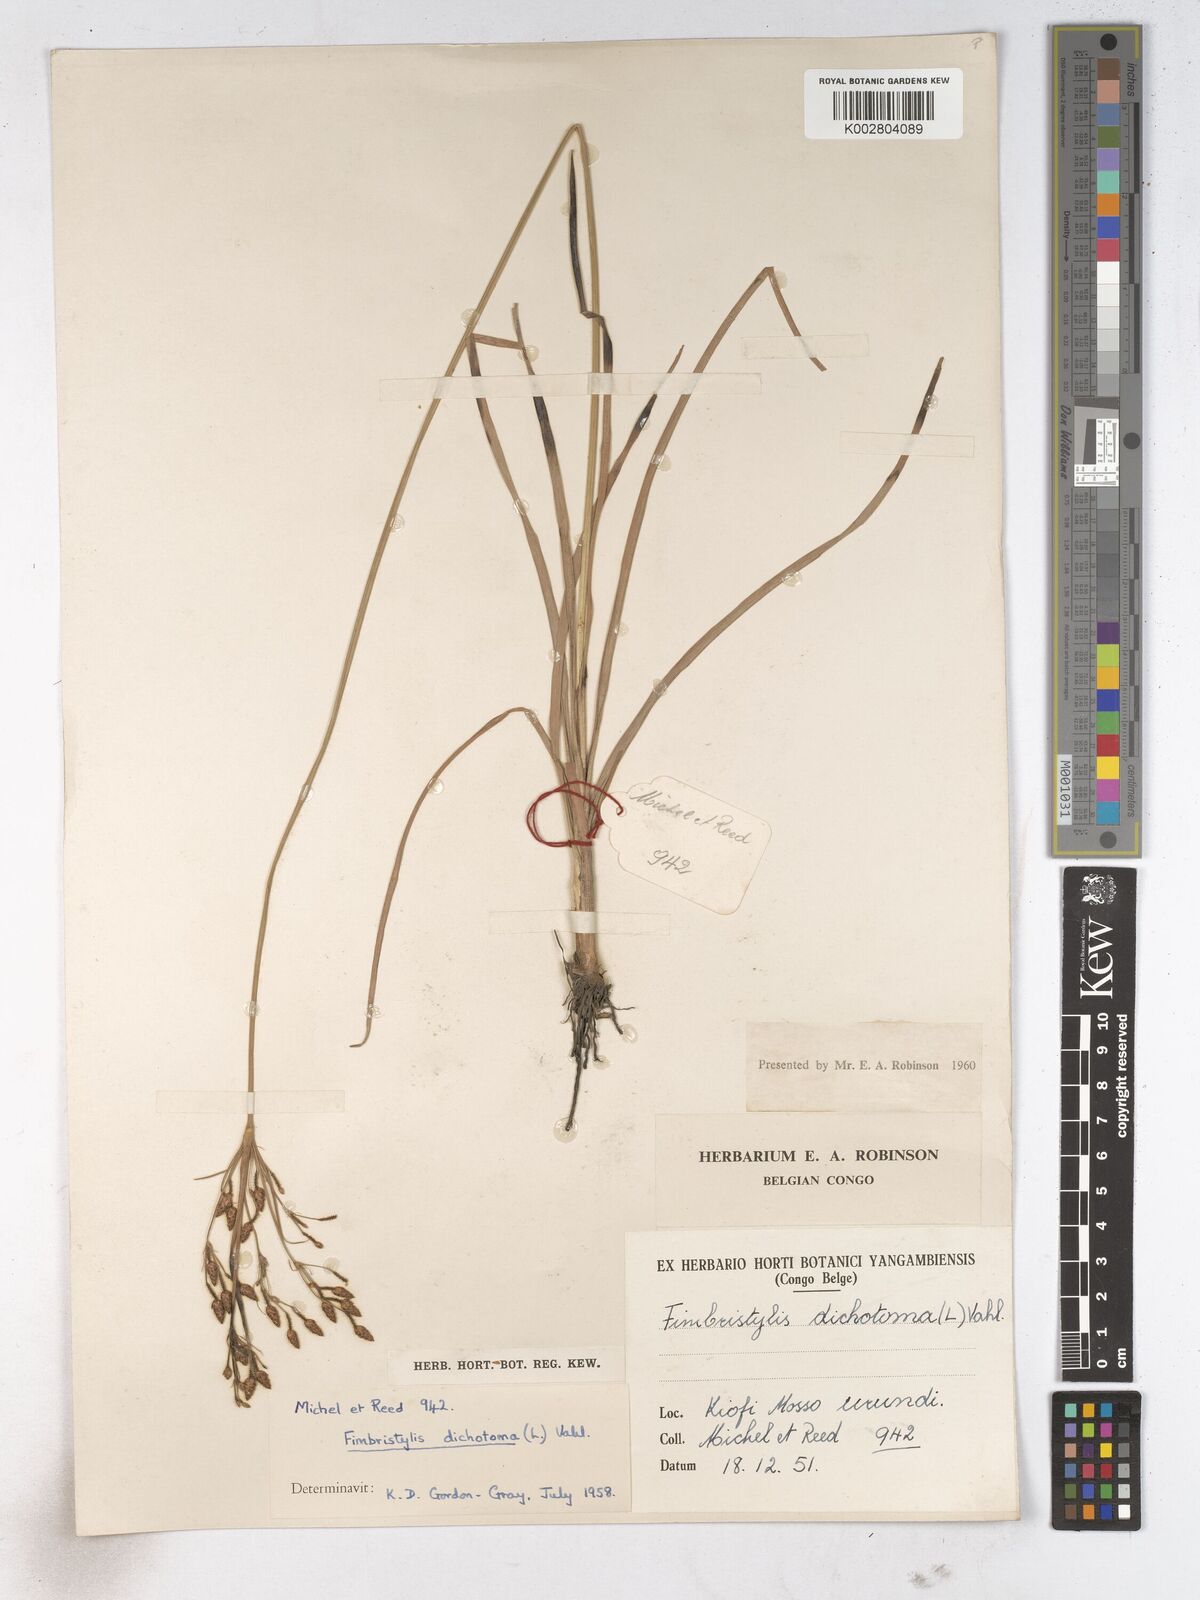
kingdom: Plantae
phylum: Tracheophyta
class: Liliopsida
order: Poales
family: Cyperaceae
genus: Fimbristylis
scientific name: Fimbristylis dichotoma
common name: Forked fimbry
